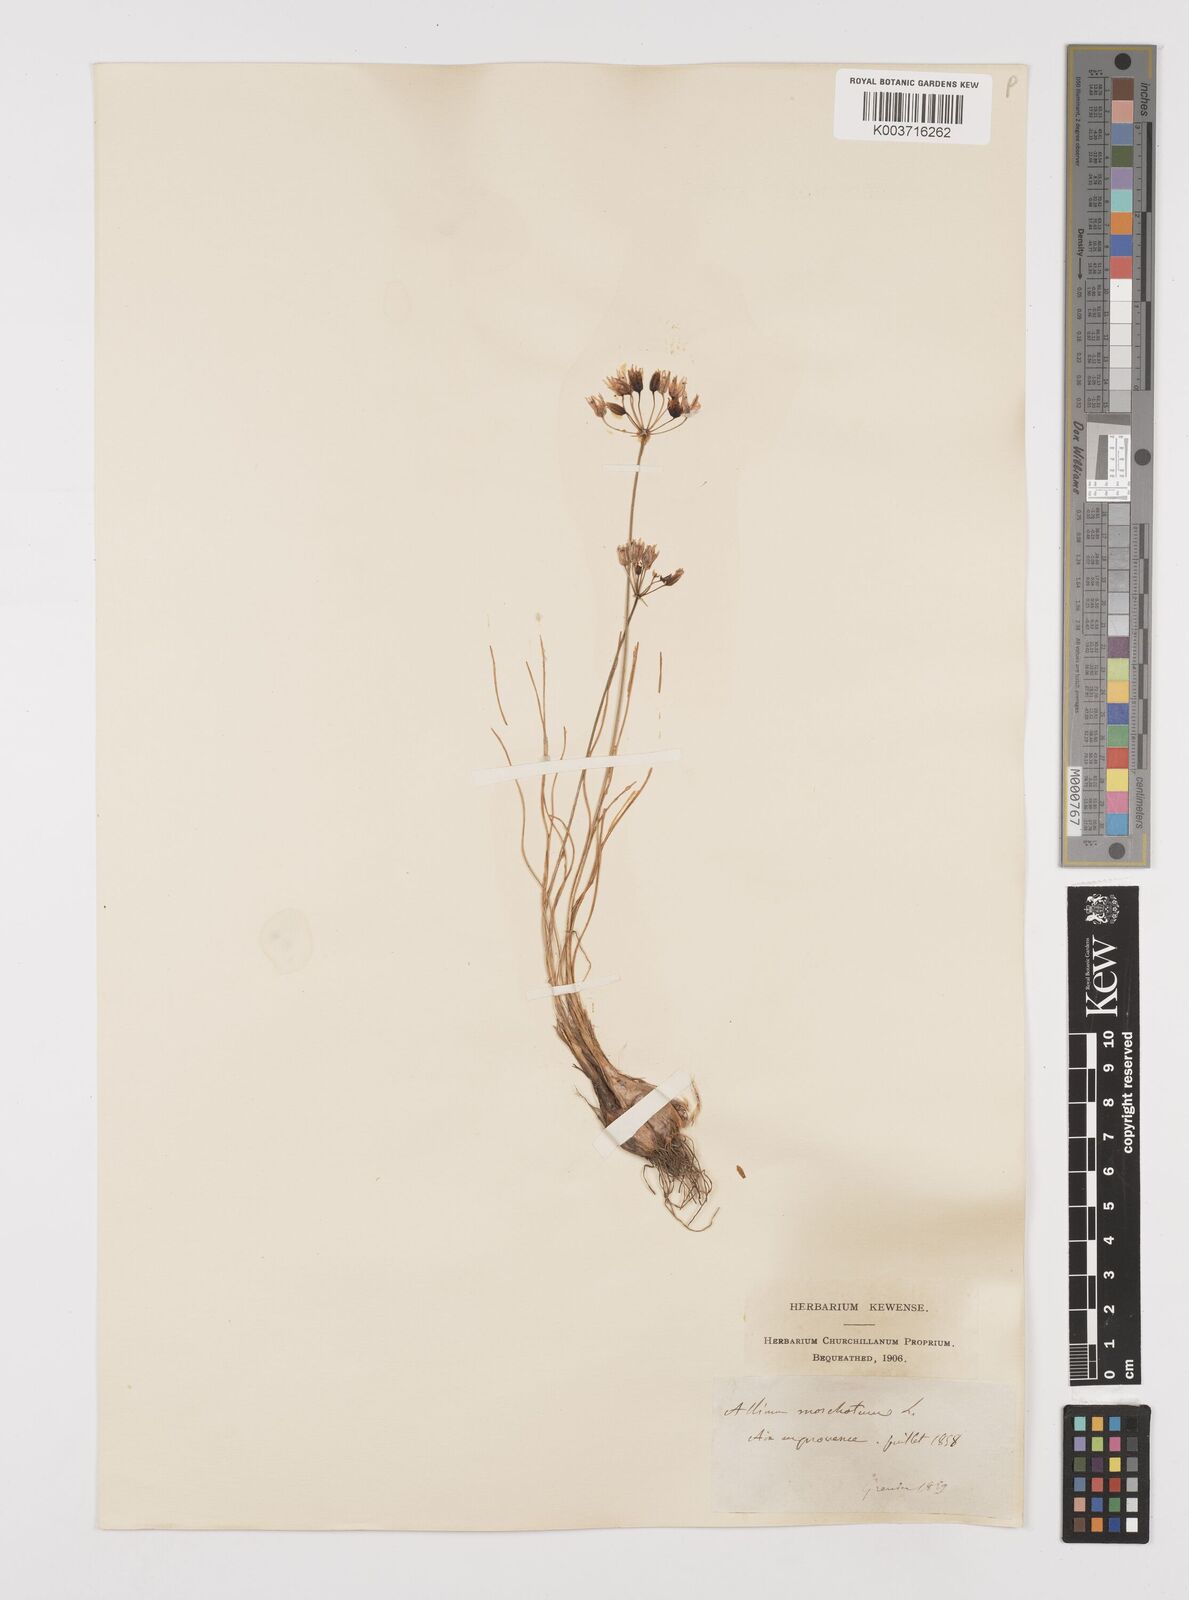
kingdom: Plantae
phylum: Tracheophyta
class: Liliopsida
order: Asparagales
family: Amaryllidaceae
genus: Allium
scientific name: Allium moschatum
